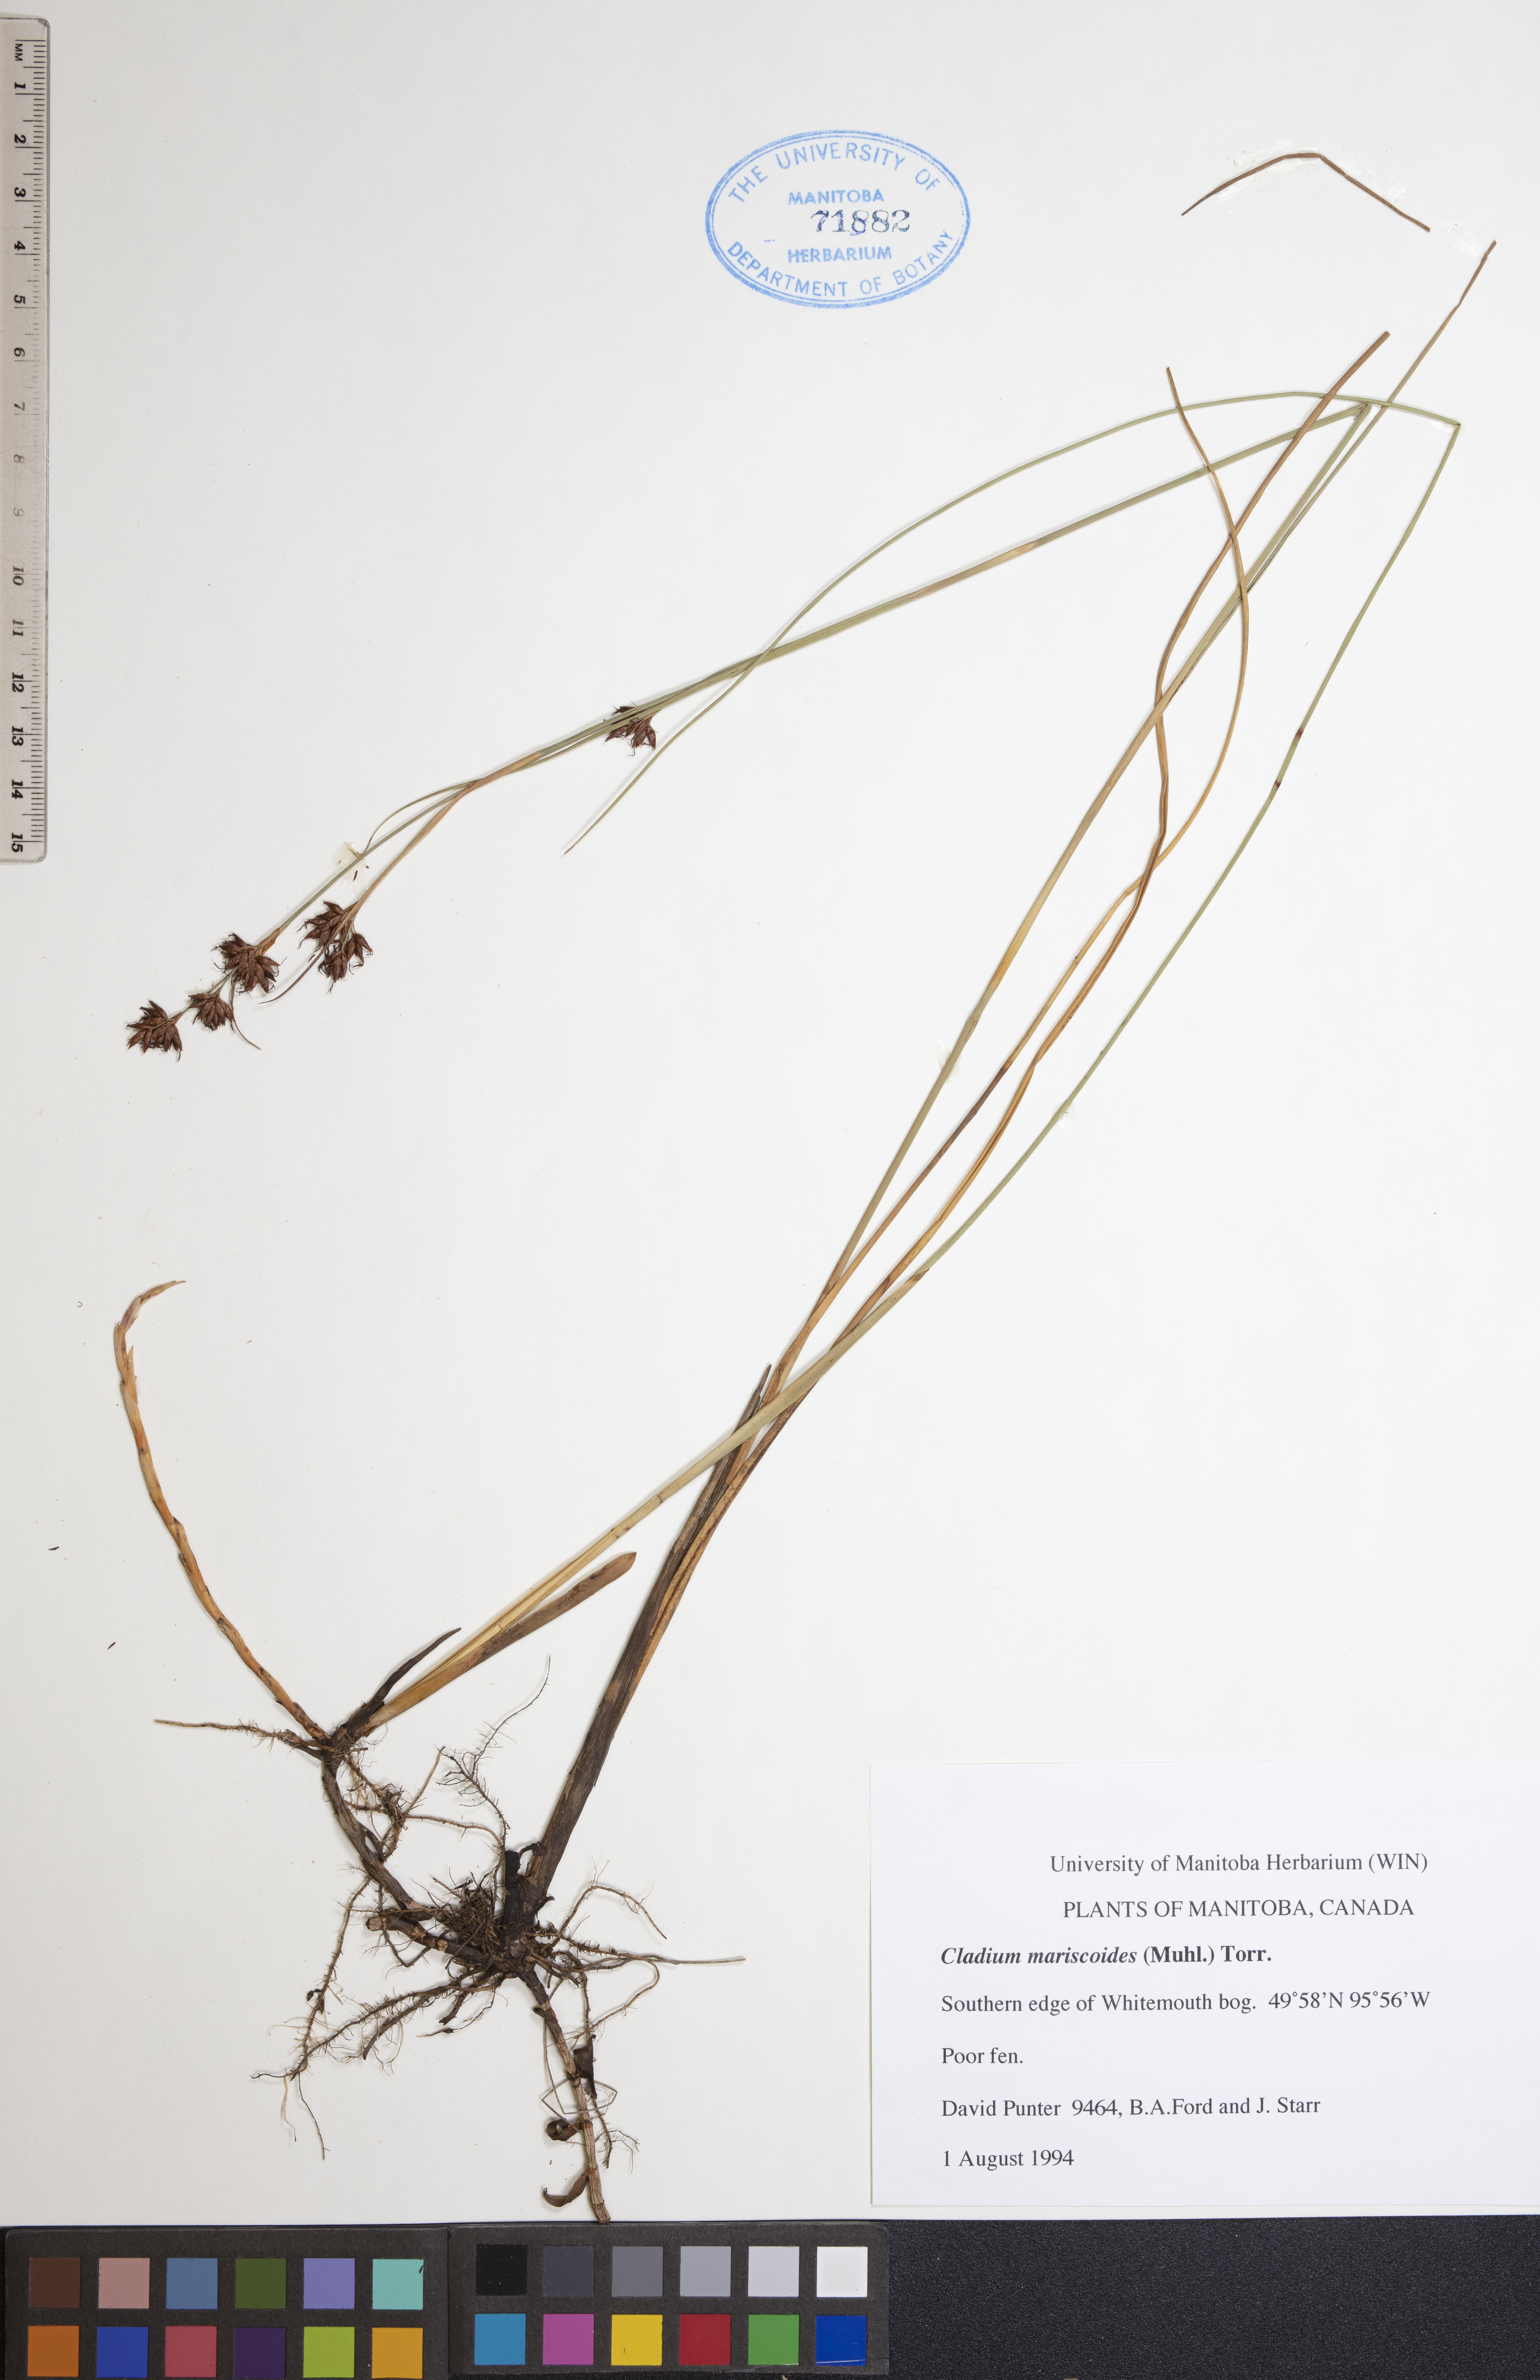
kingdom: Plantae
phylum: Tracheophyta
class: Liliopsida
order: Poales
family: Cyperaceae
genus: Cladium
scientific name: Cladium mariscoides
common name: Smooth sawgrass
